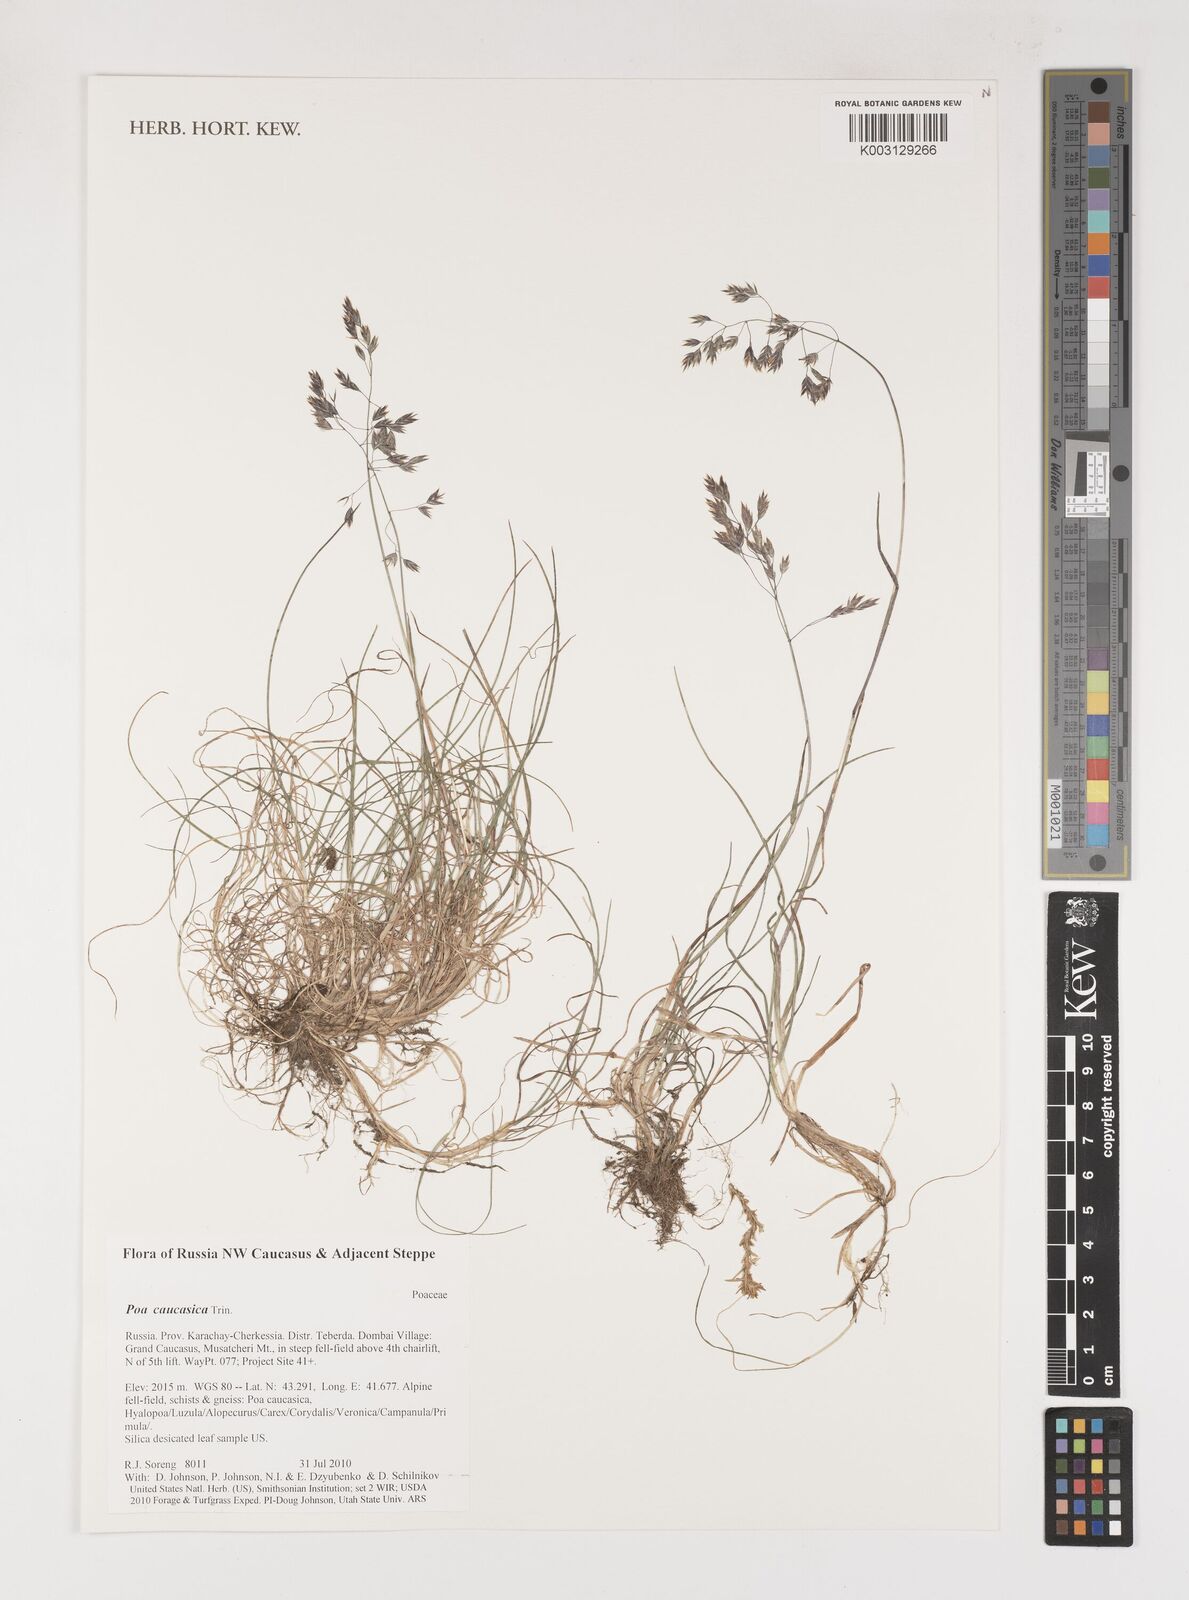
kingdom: Plantae
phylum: Tracheophyta
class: Liliopsida
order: Poales
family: Poaceae
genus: Poa
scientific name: Poa caucasica
